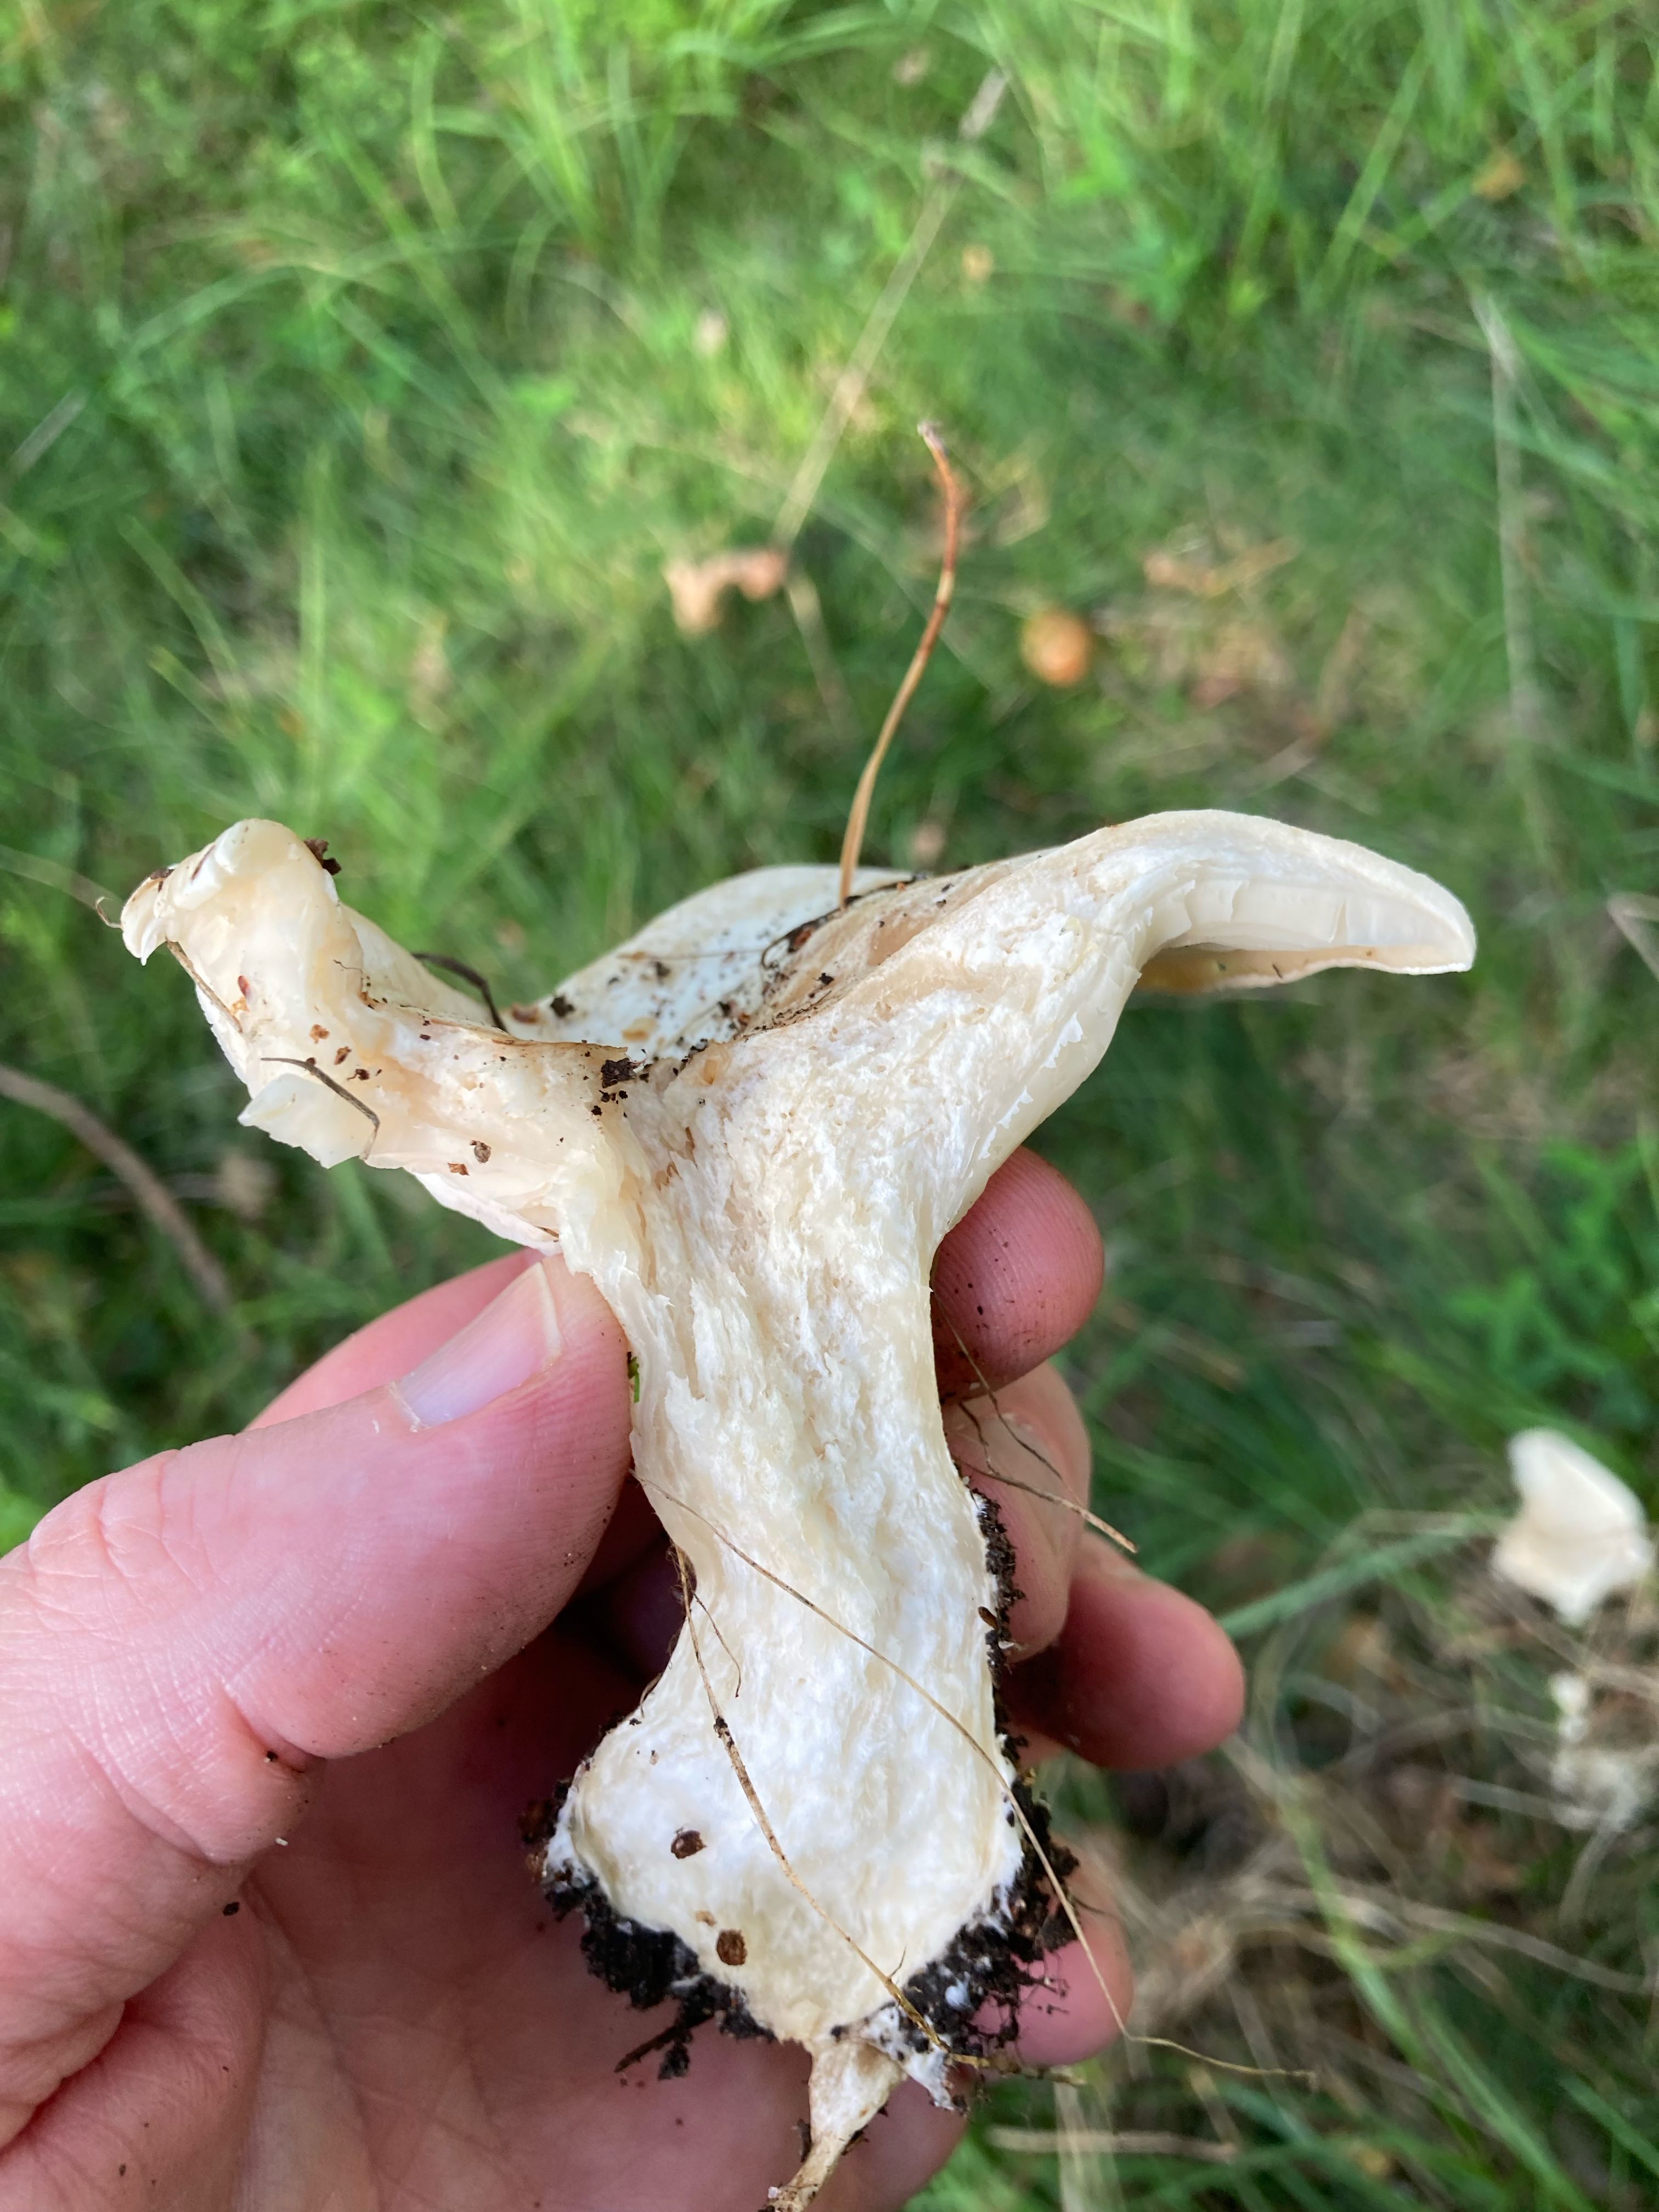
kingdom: Fungi
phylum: Basidiomycota
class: Agaricomycetes
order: Agaricales
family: Tricholomataceae
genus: Aspropaxillus
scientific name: Aspropaxillus giganteus
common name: kæmpe-tragtridderhat
